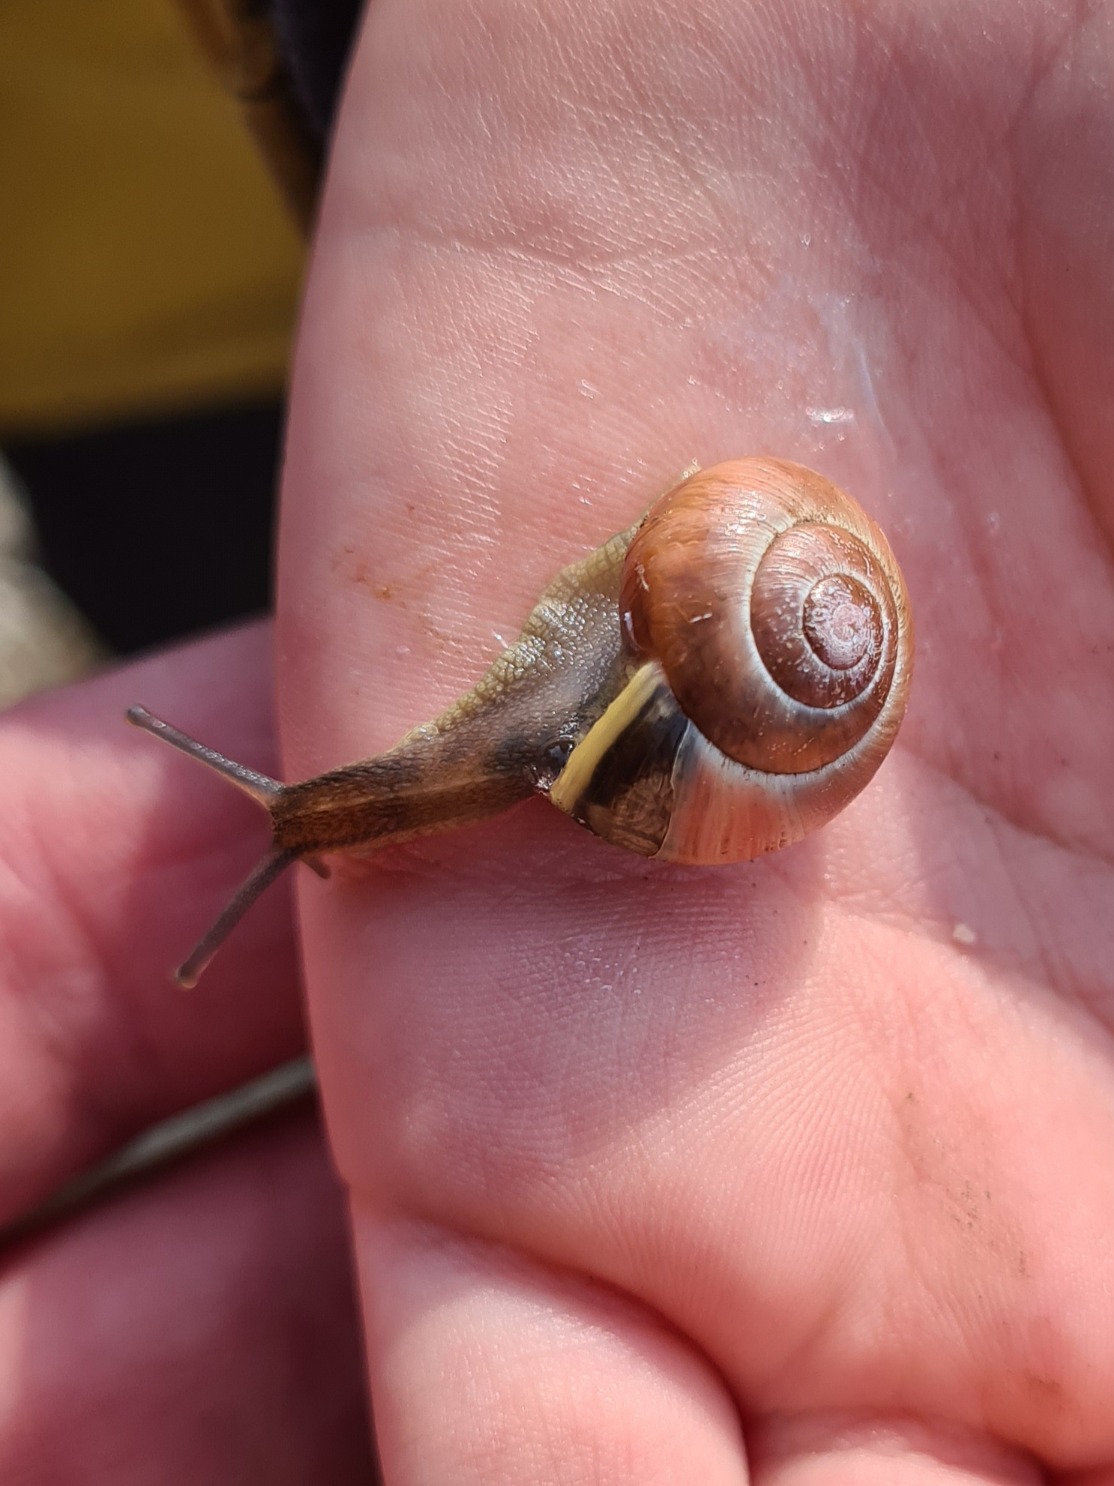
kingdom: Animalia
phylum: Mollusca
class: Gastropoda
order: Stylommatophora
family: Helicidae
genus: Cepaea
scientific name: Cepaea hortensis
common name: Havesnegl
